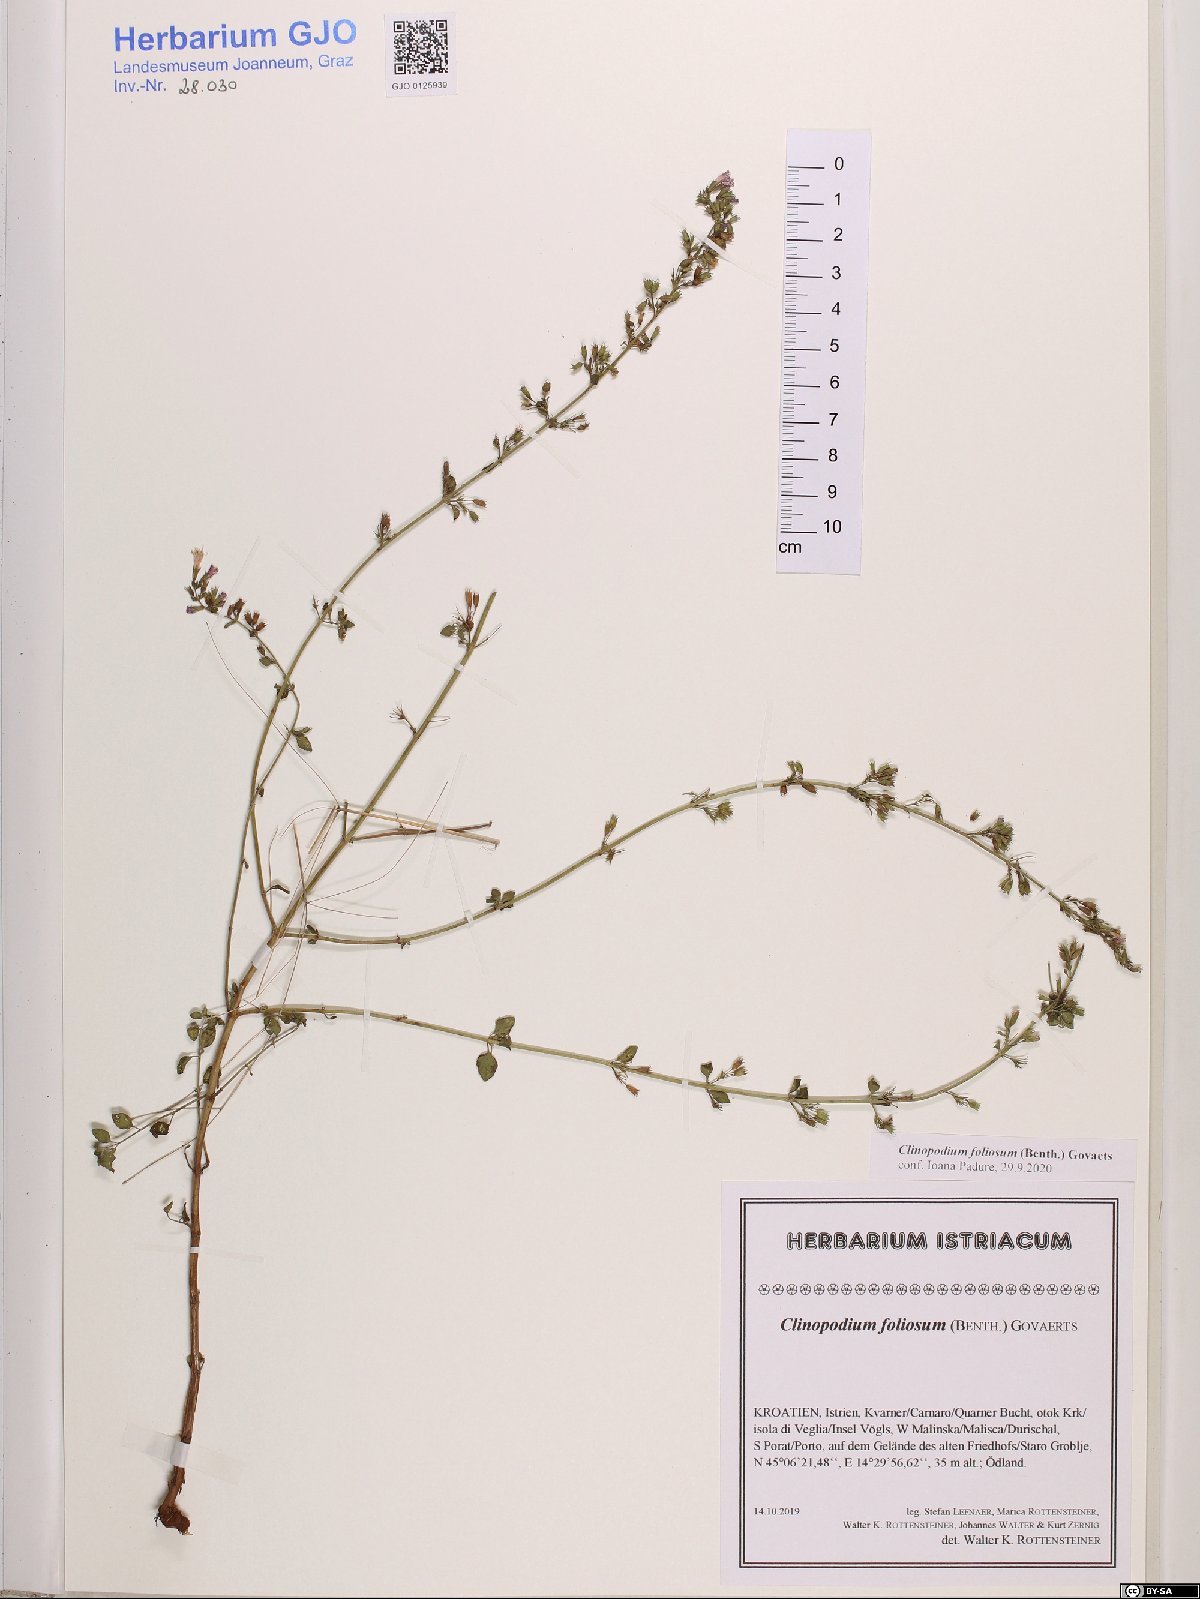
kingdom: Plantae
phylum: Tracheophyta
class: Magnoliopsida
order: Lamiales
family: Lamiaceae
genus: Clinopodium
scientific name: Clinopodium foliolosum
